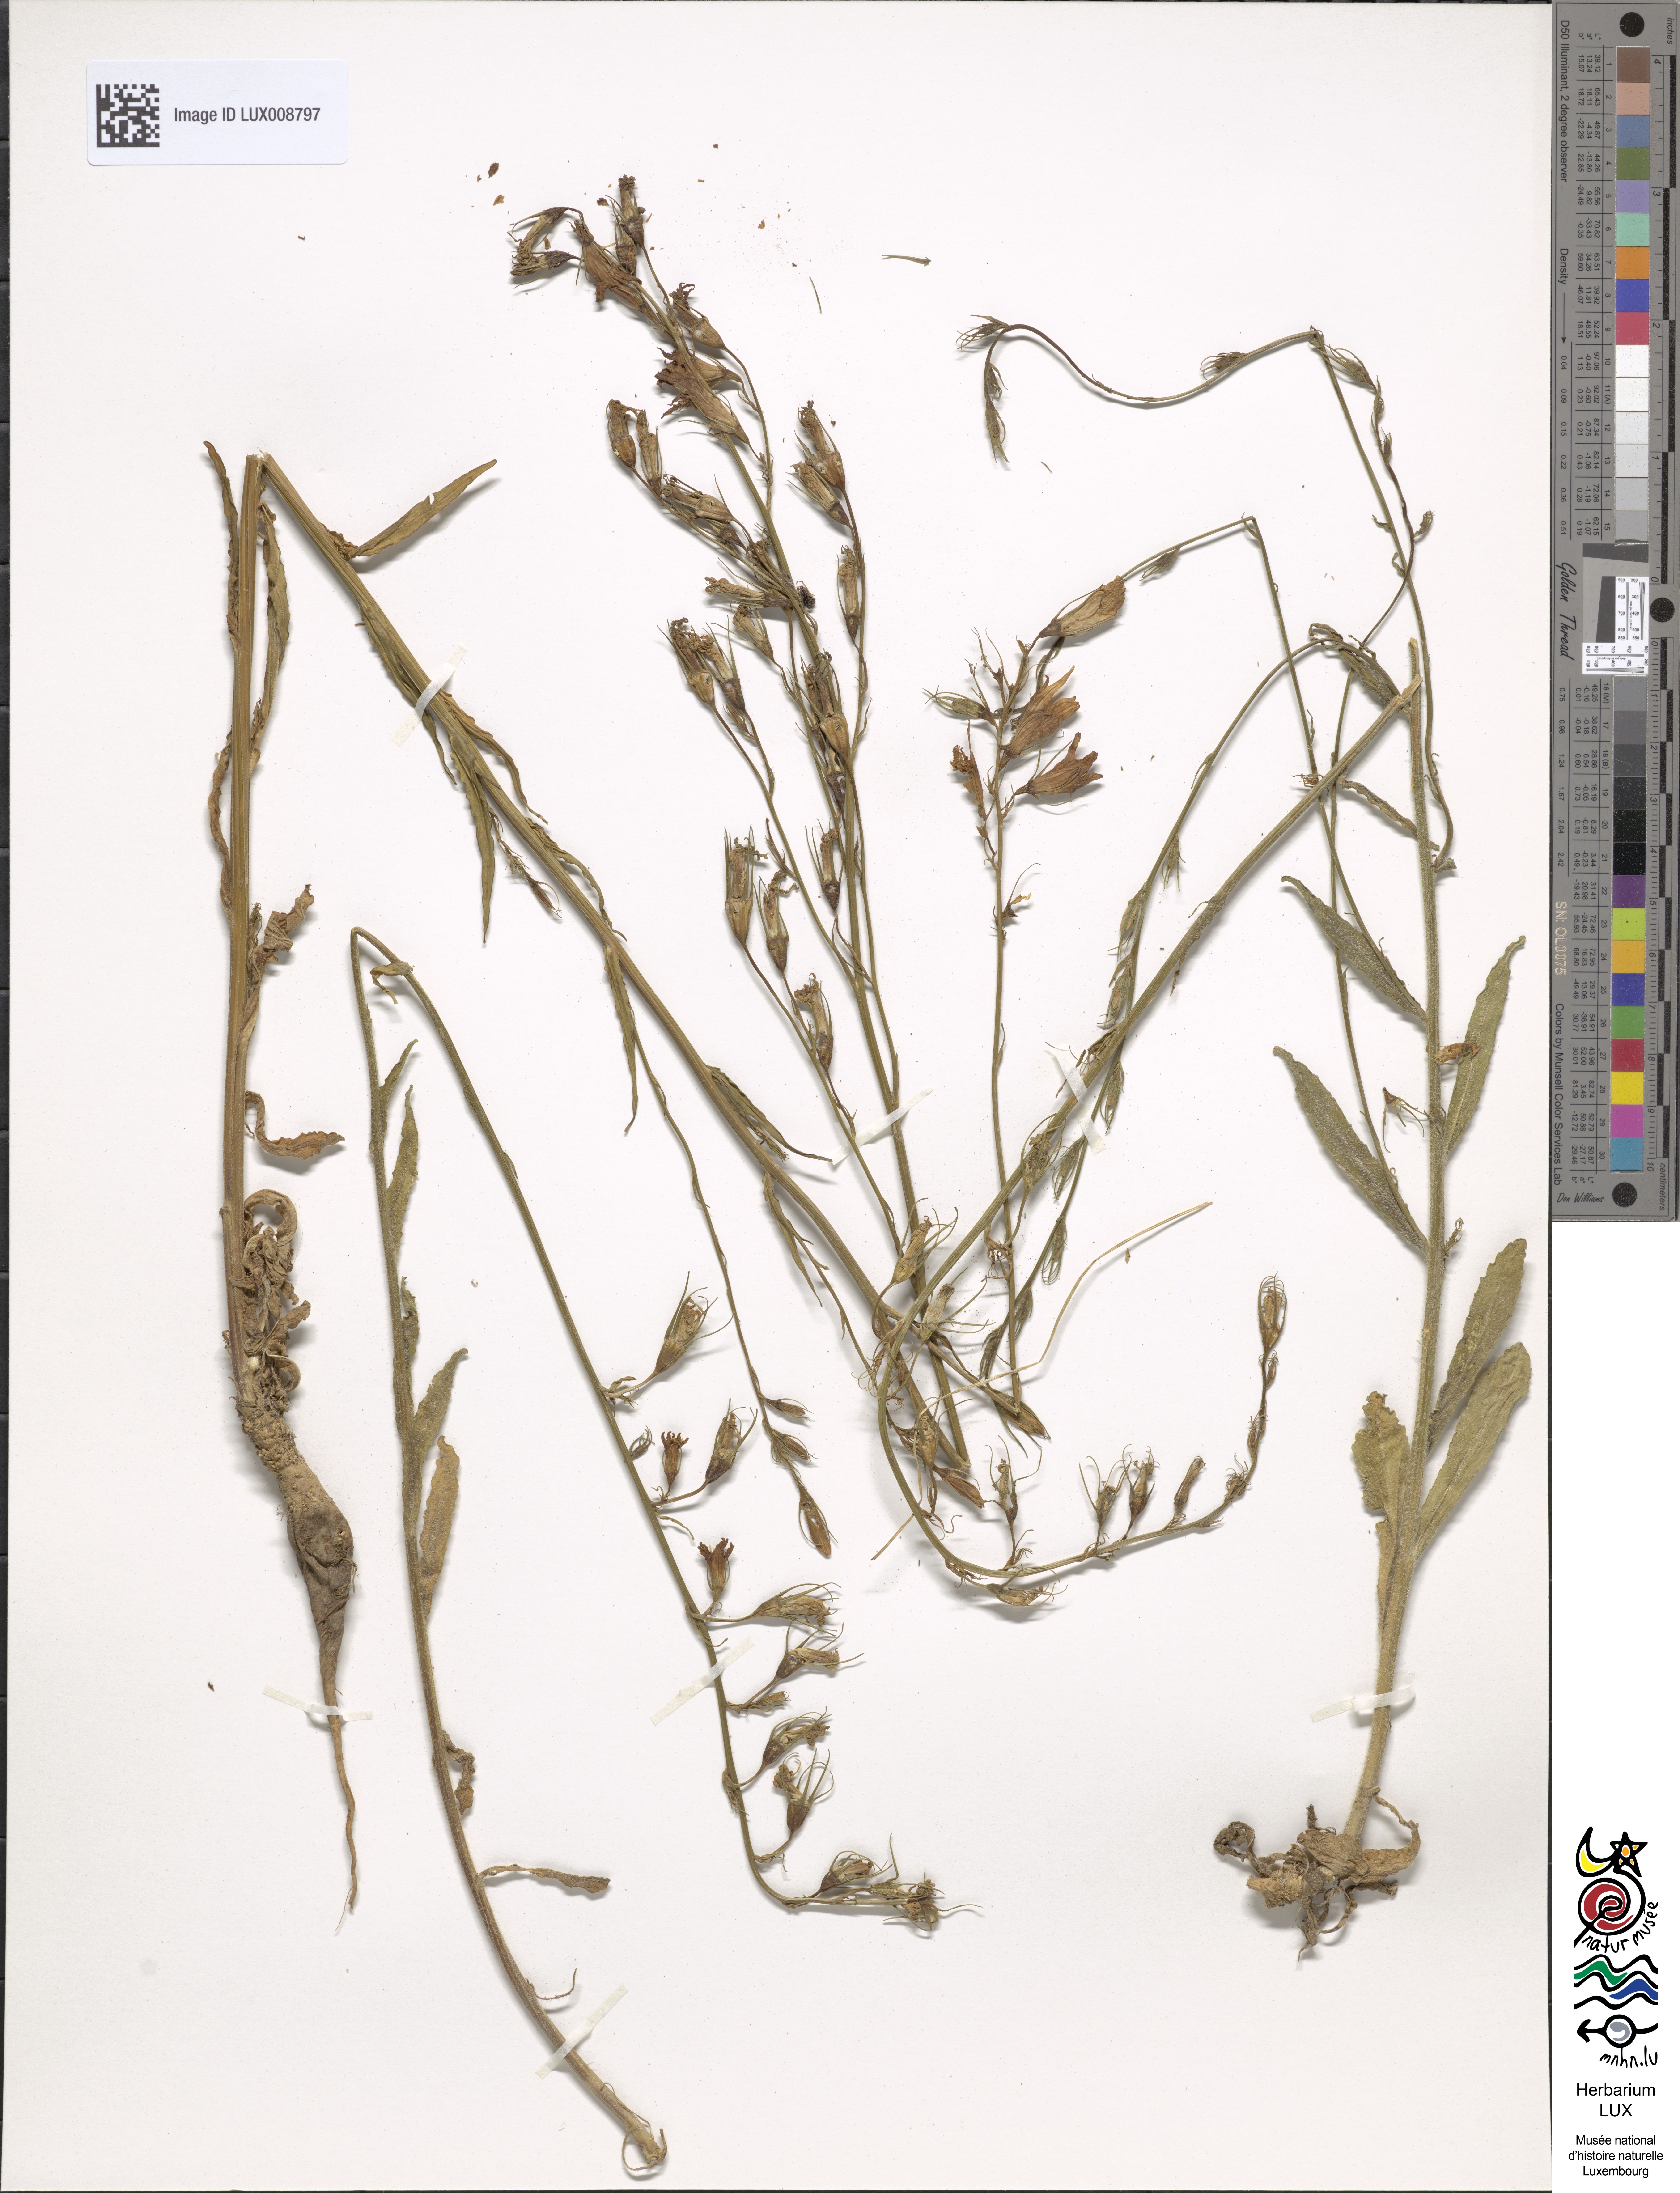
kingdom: Plantae
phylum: Tracheophyta
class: Magnoliopsida
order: Asterales
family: Campanulaceae
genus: Campanula
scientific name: Campanula rapunculus
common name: Rampion bellflower
